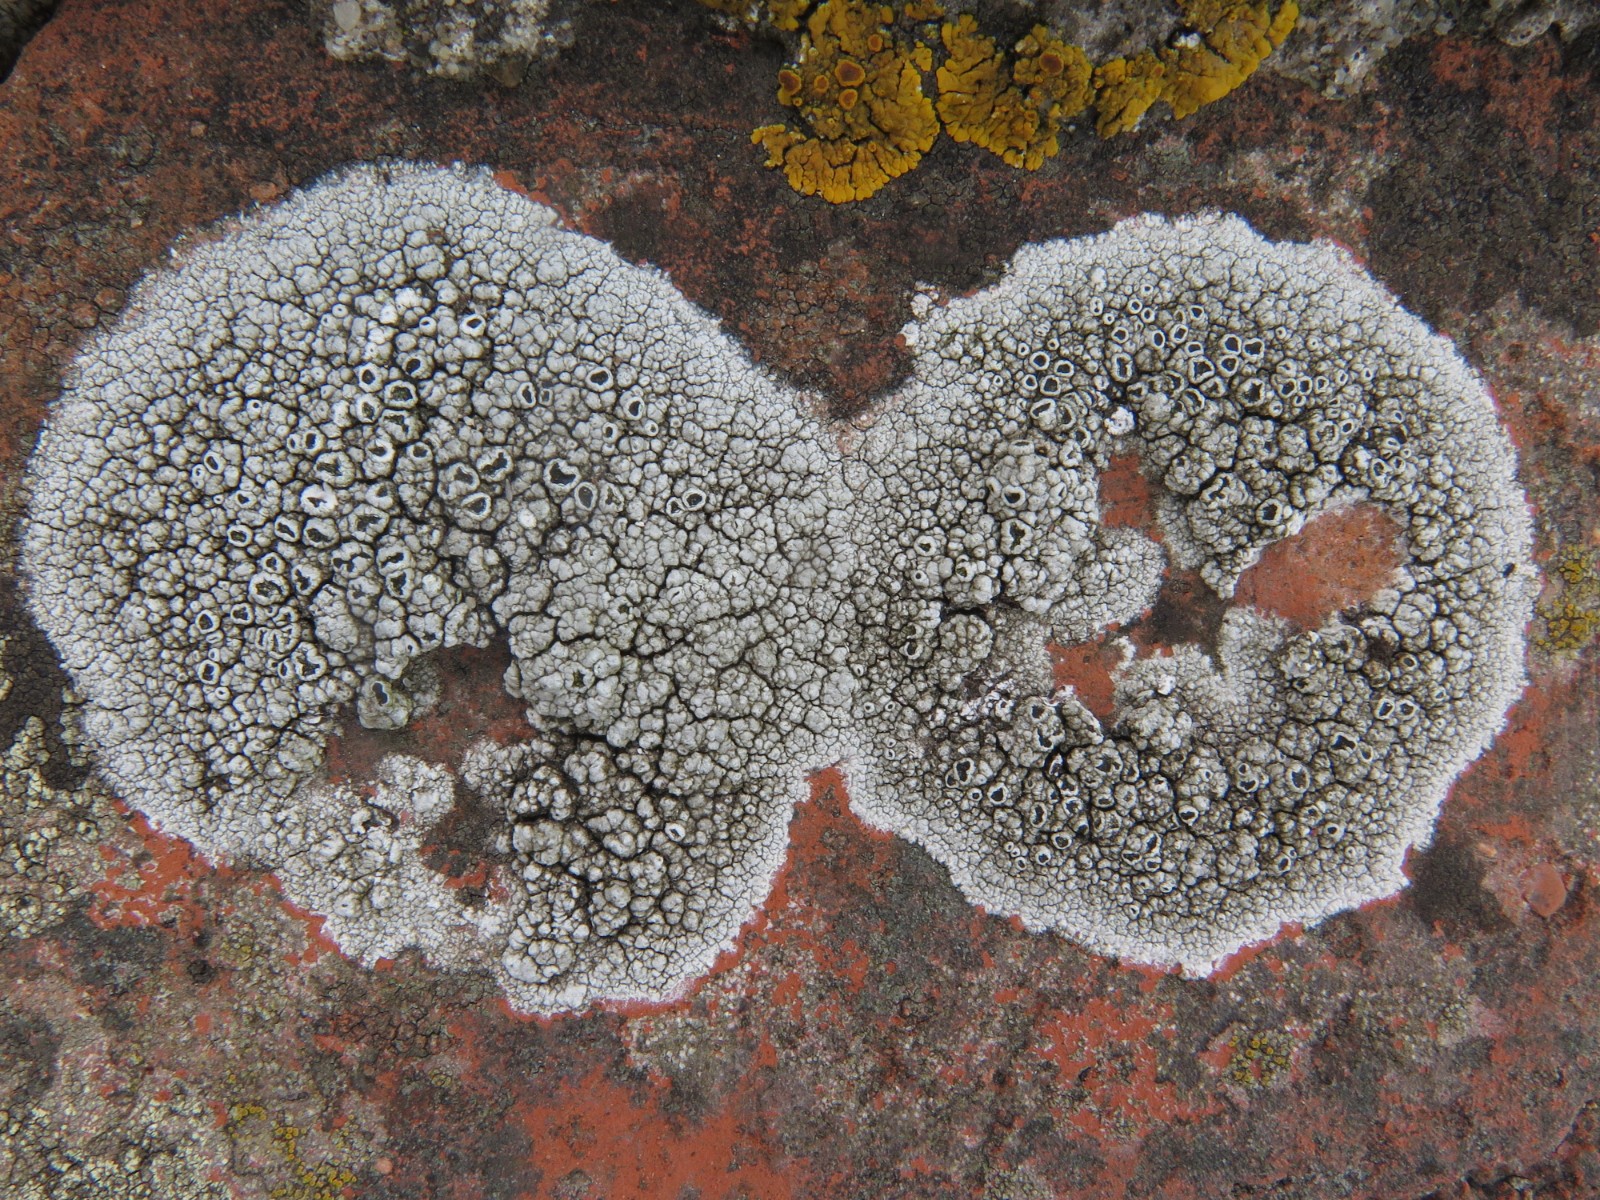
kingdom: Fungi
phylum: Ascomycota
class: Lecanoromycetes
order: Lecanorales
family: Tephromelataceae
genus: Tephromela
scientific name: Tephromela atra
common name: sortfrugtet kantskivelav
